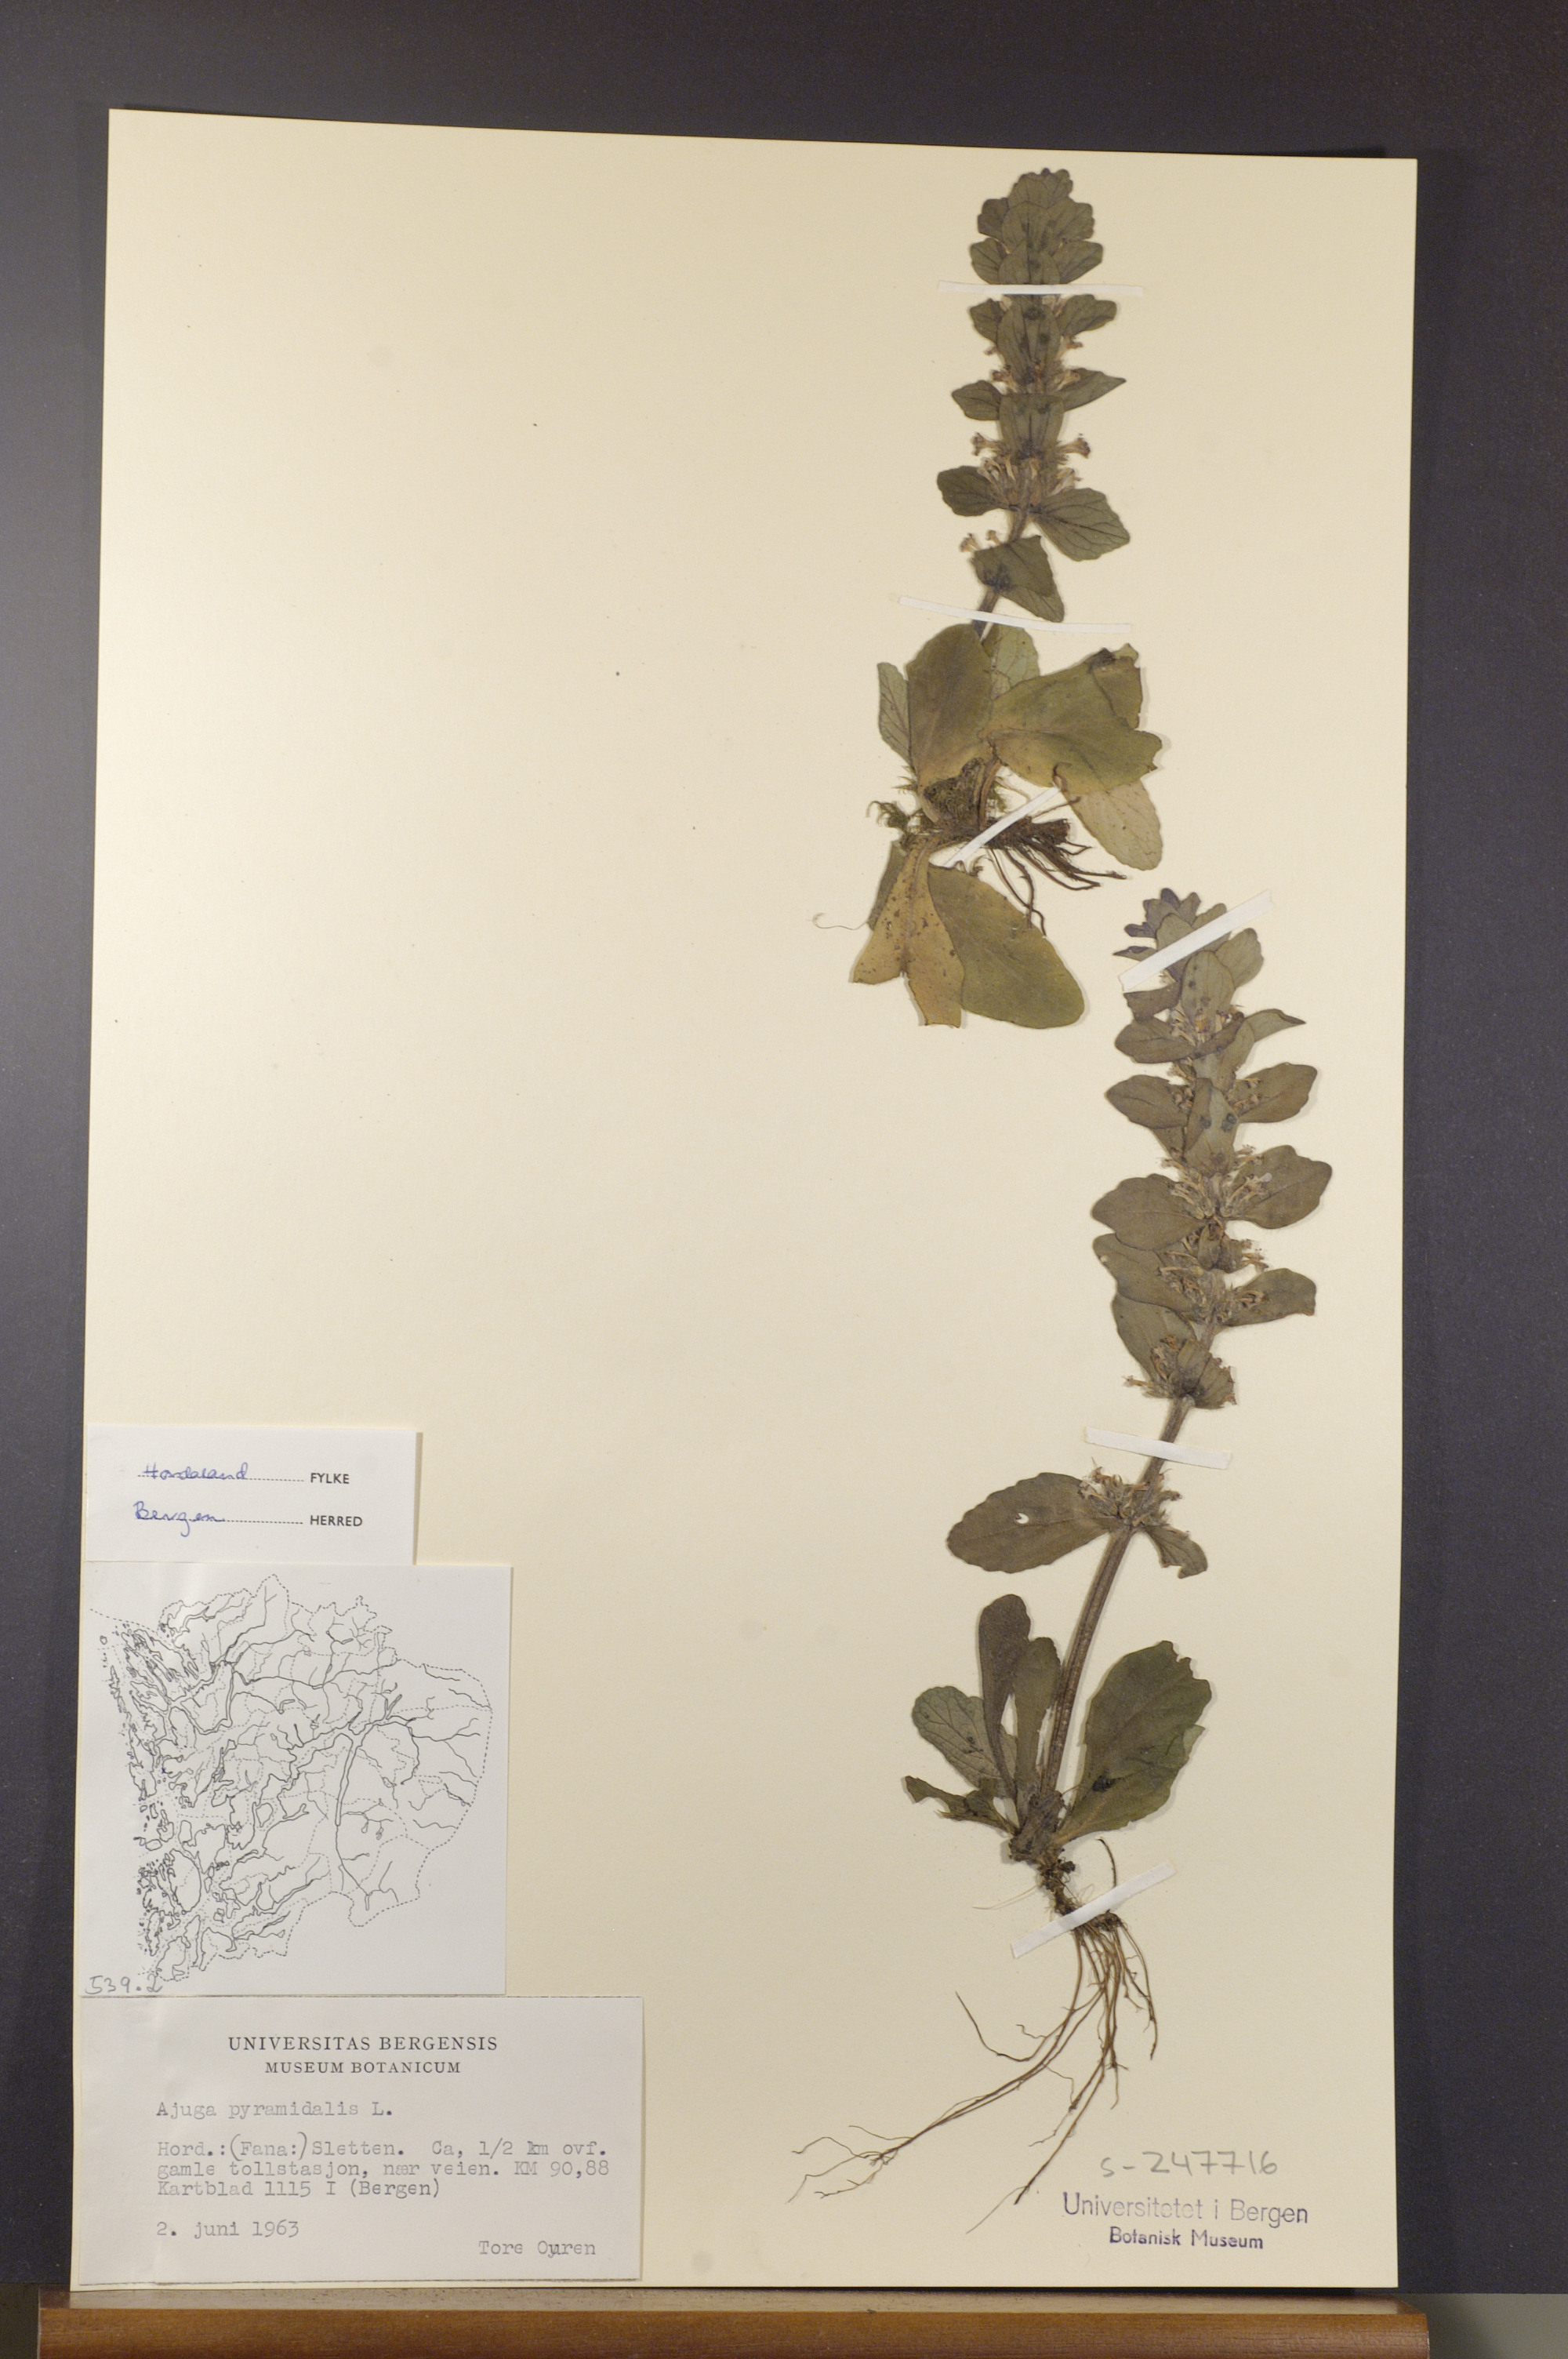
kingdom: Plantae
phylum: Tracheophyta
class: Magnoliopsida
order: Lamiales
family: Lamiaceae
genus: Ajuga
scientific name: Ajuga pyramidalis
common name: Pyramid bugle
